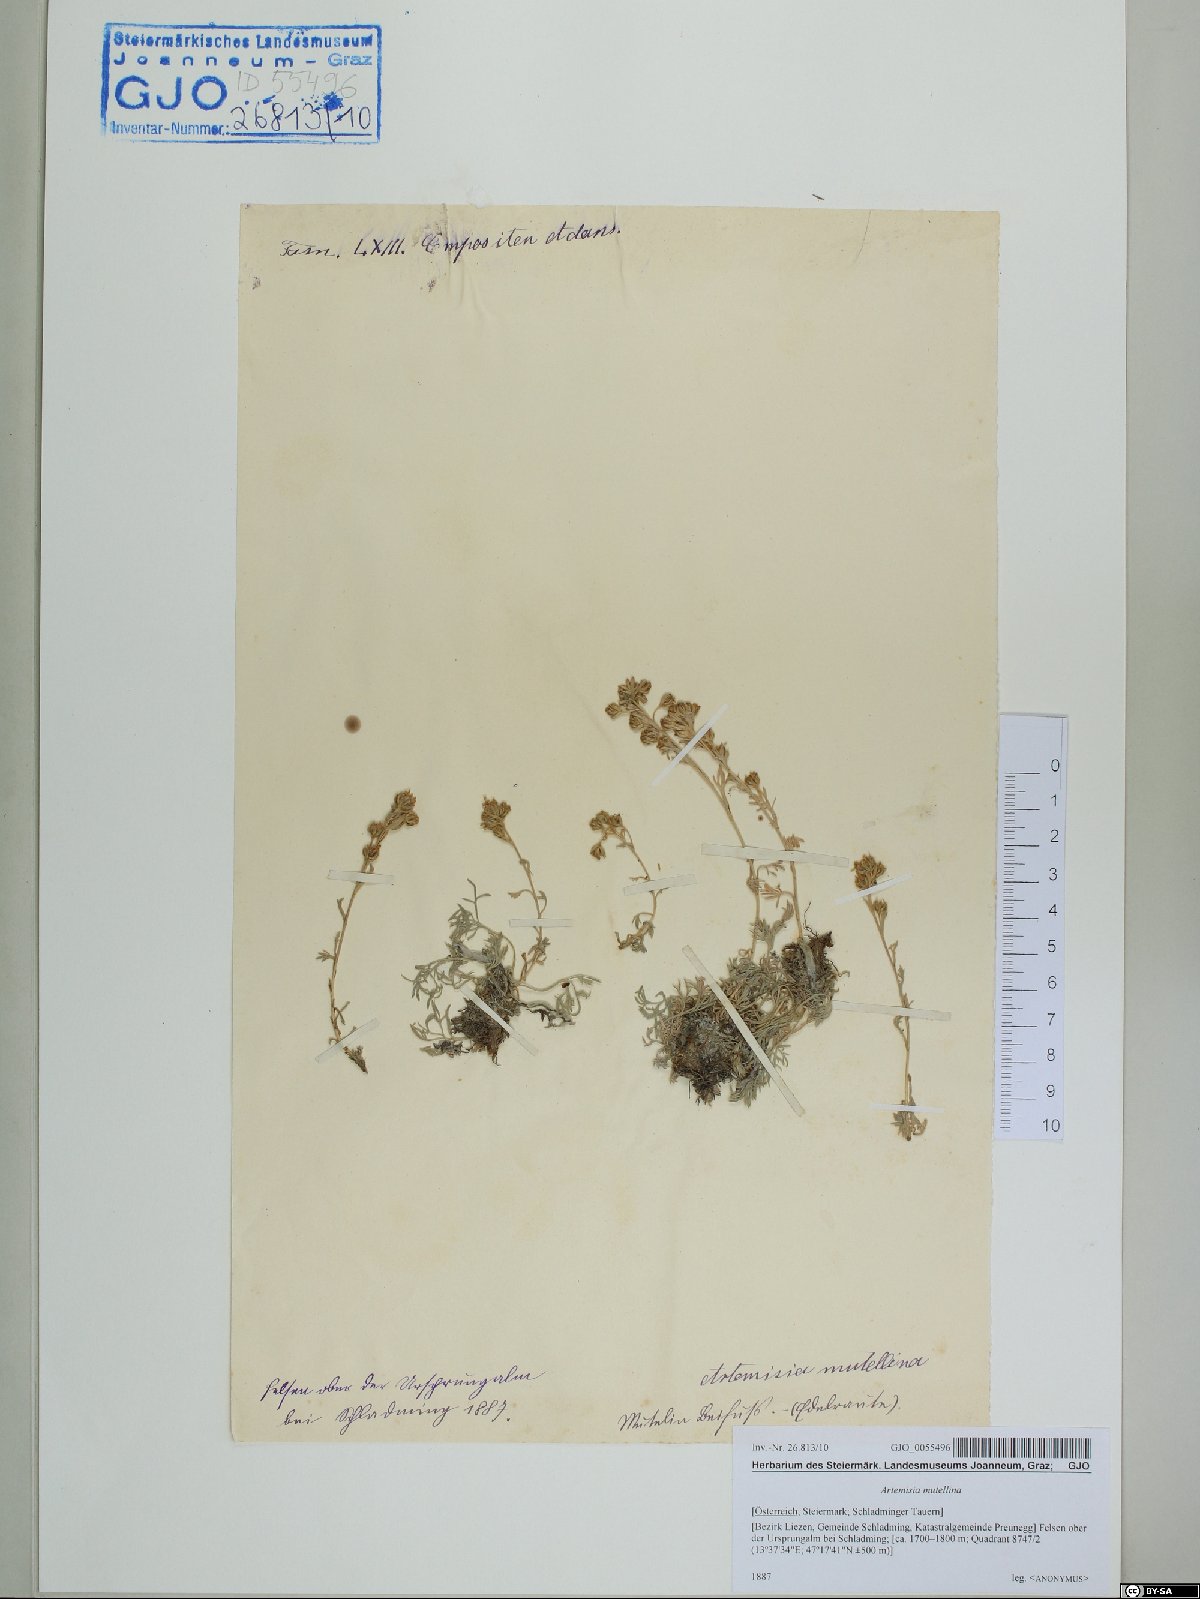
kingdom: Plantae
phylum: Tracheophyta
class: Magnoliopsida
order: Asterales
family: Asteraceae
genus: Artemisia
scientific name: Artemisia mutellina
